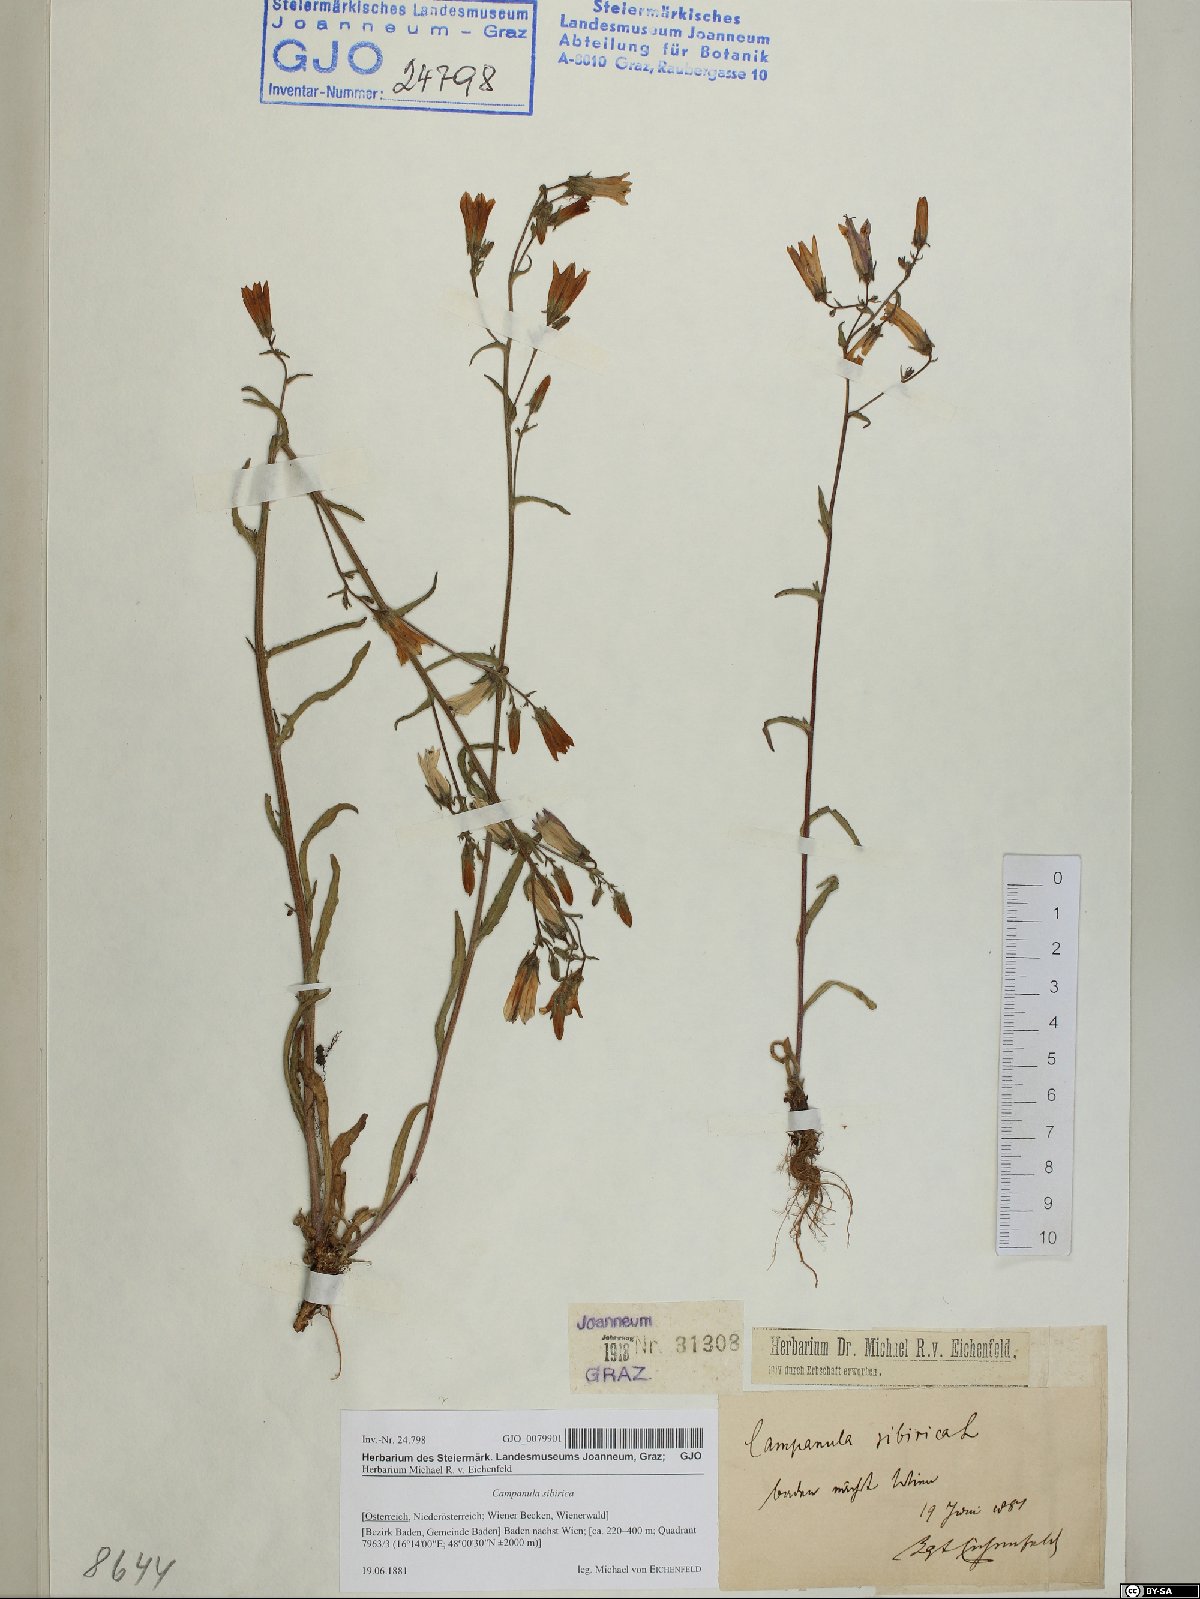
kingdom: Plantae
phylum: Tracheophyta
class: Magnoliopsida
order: Asterales
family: Campanulaceae
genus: Campanula
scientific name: Campanula sibirica
